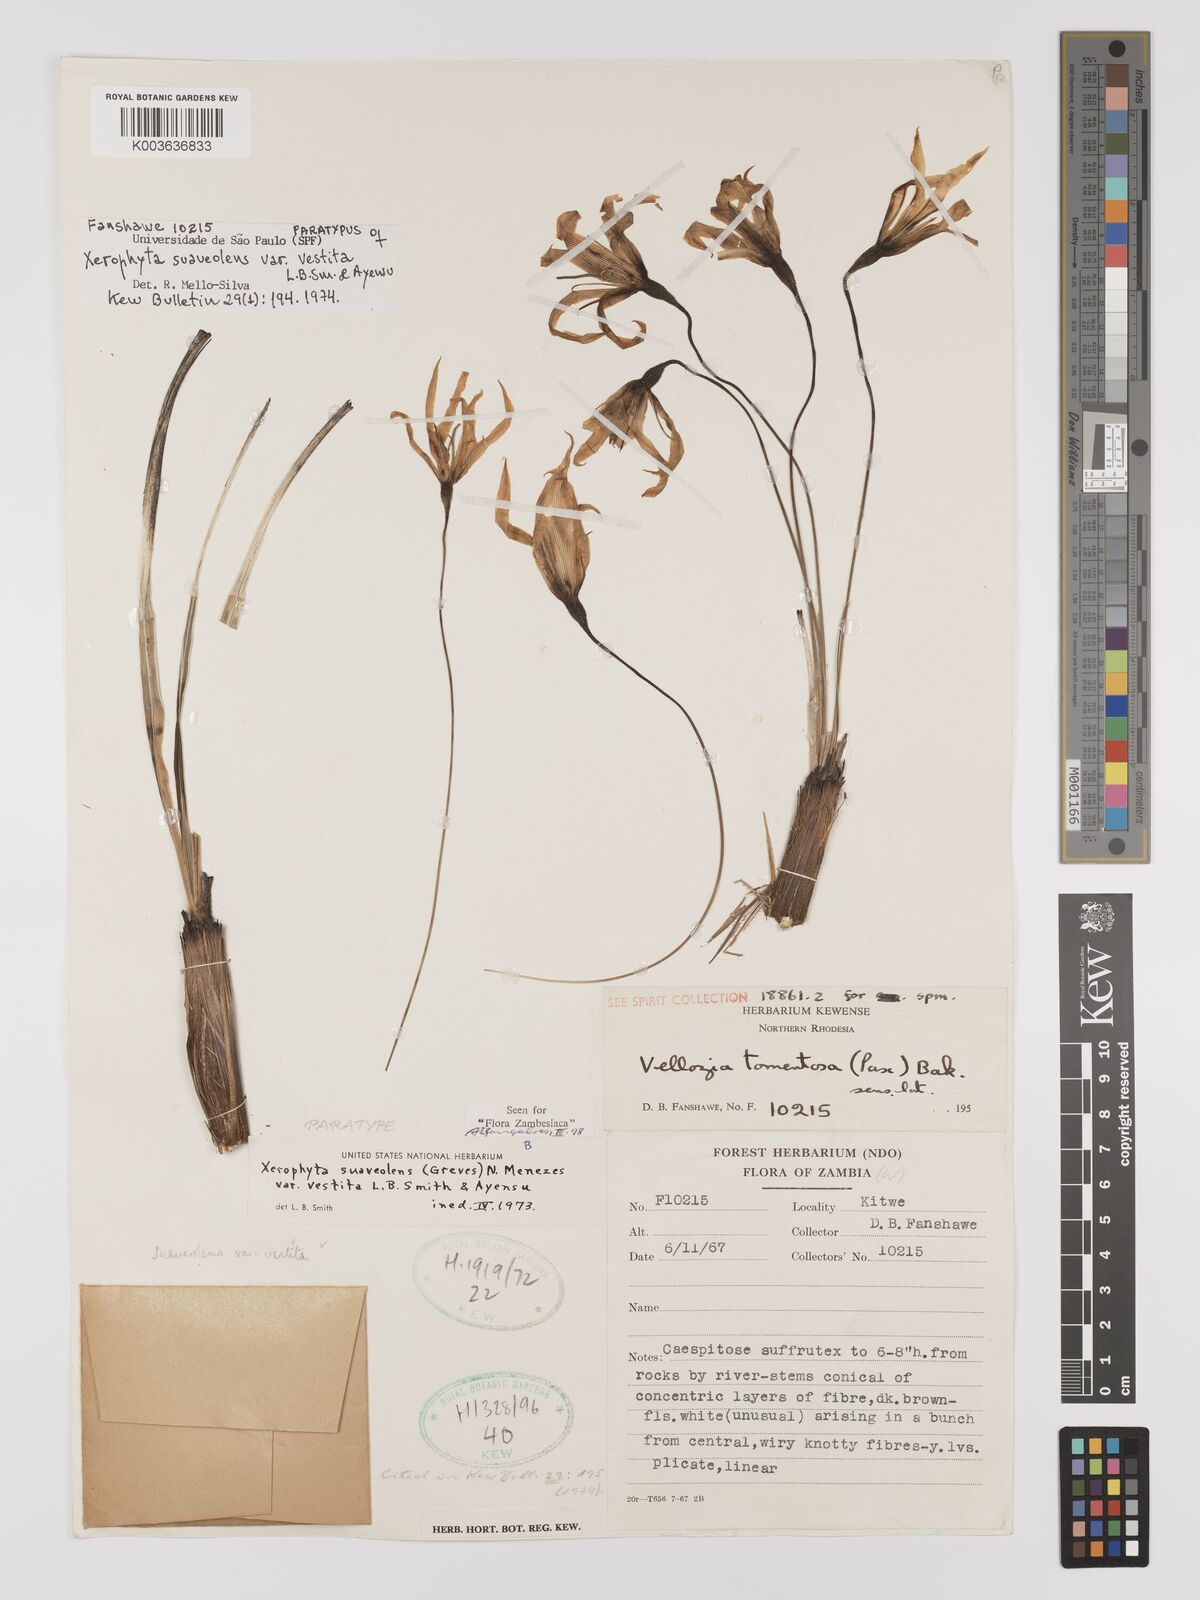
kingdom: Plantae
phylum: Tracheophyta
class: Liliopsida
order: Pandanales
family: Velloziaceae
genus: Xerophyta
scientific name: Xerophyta suaveolens
